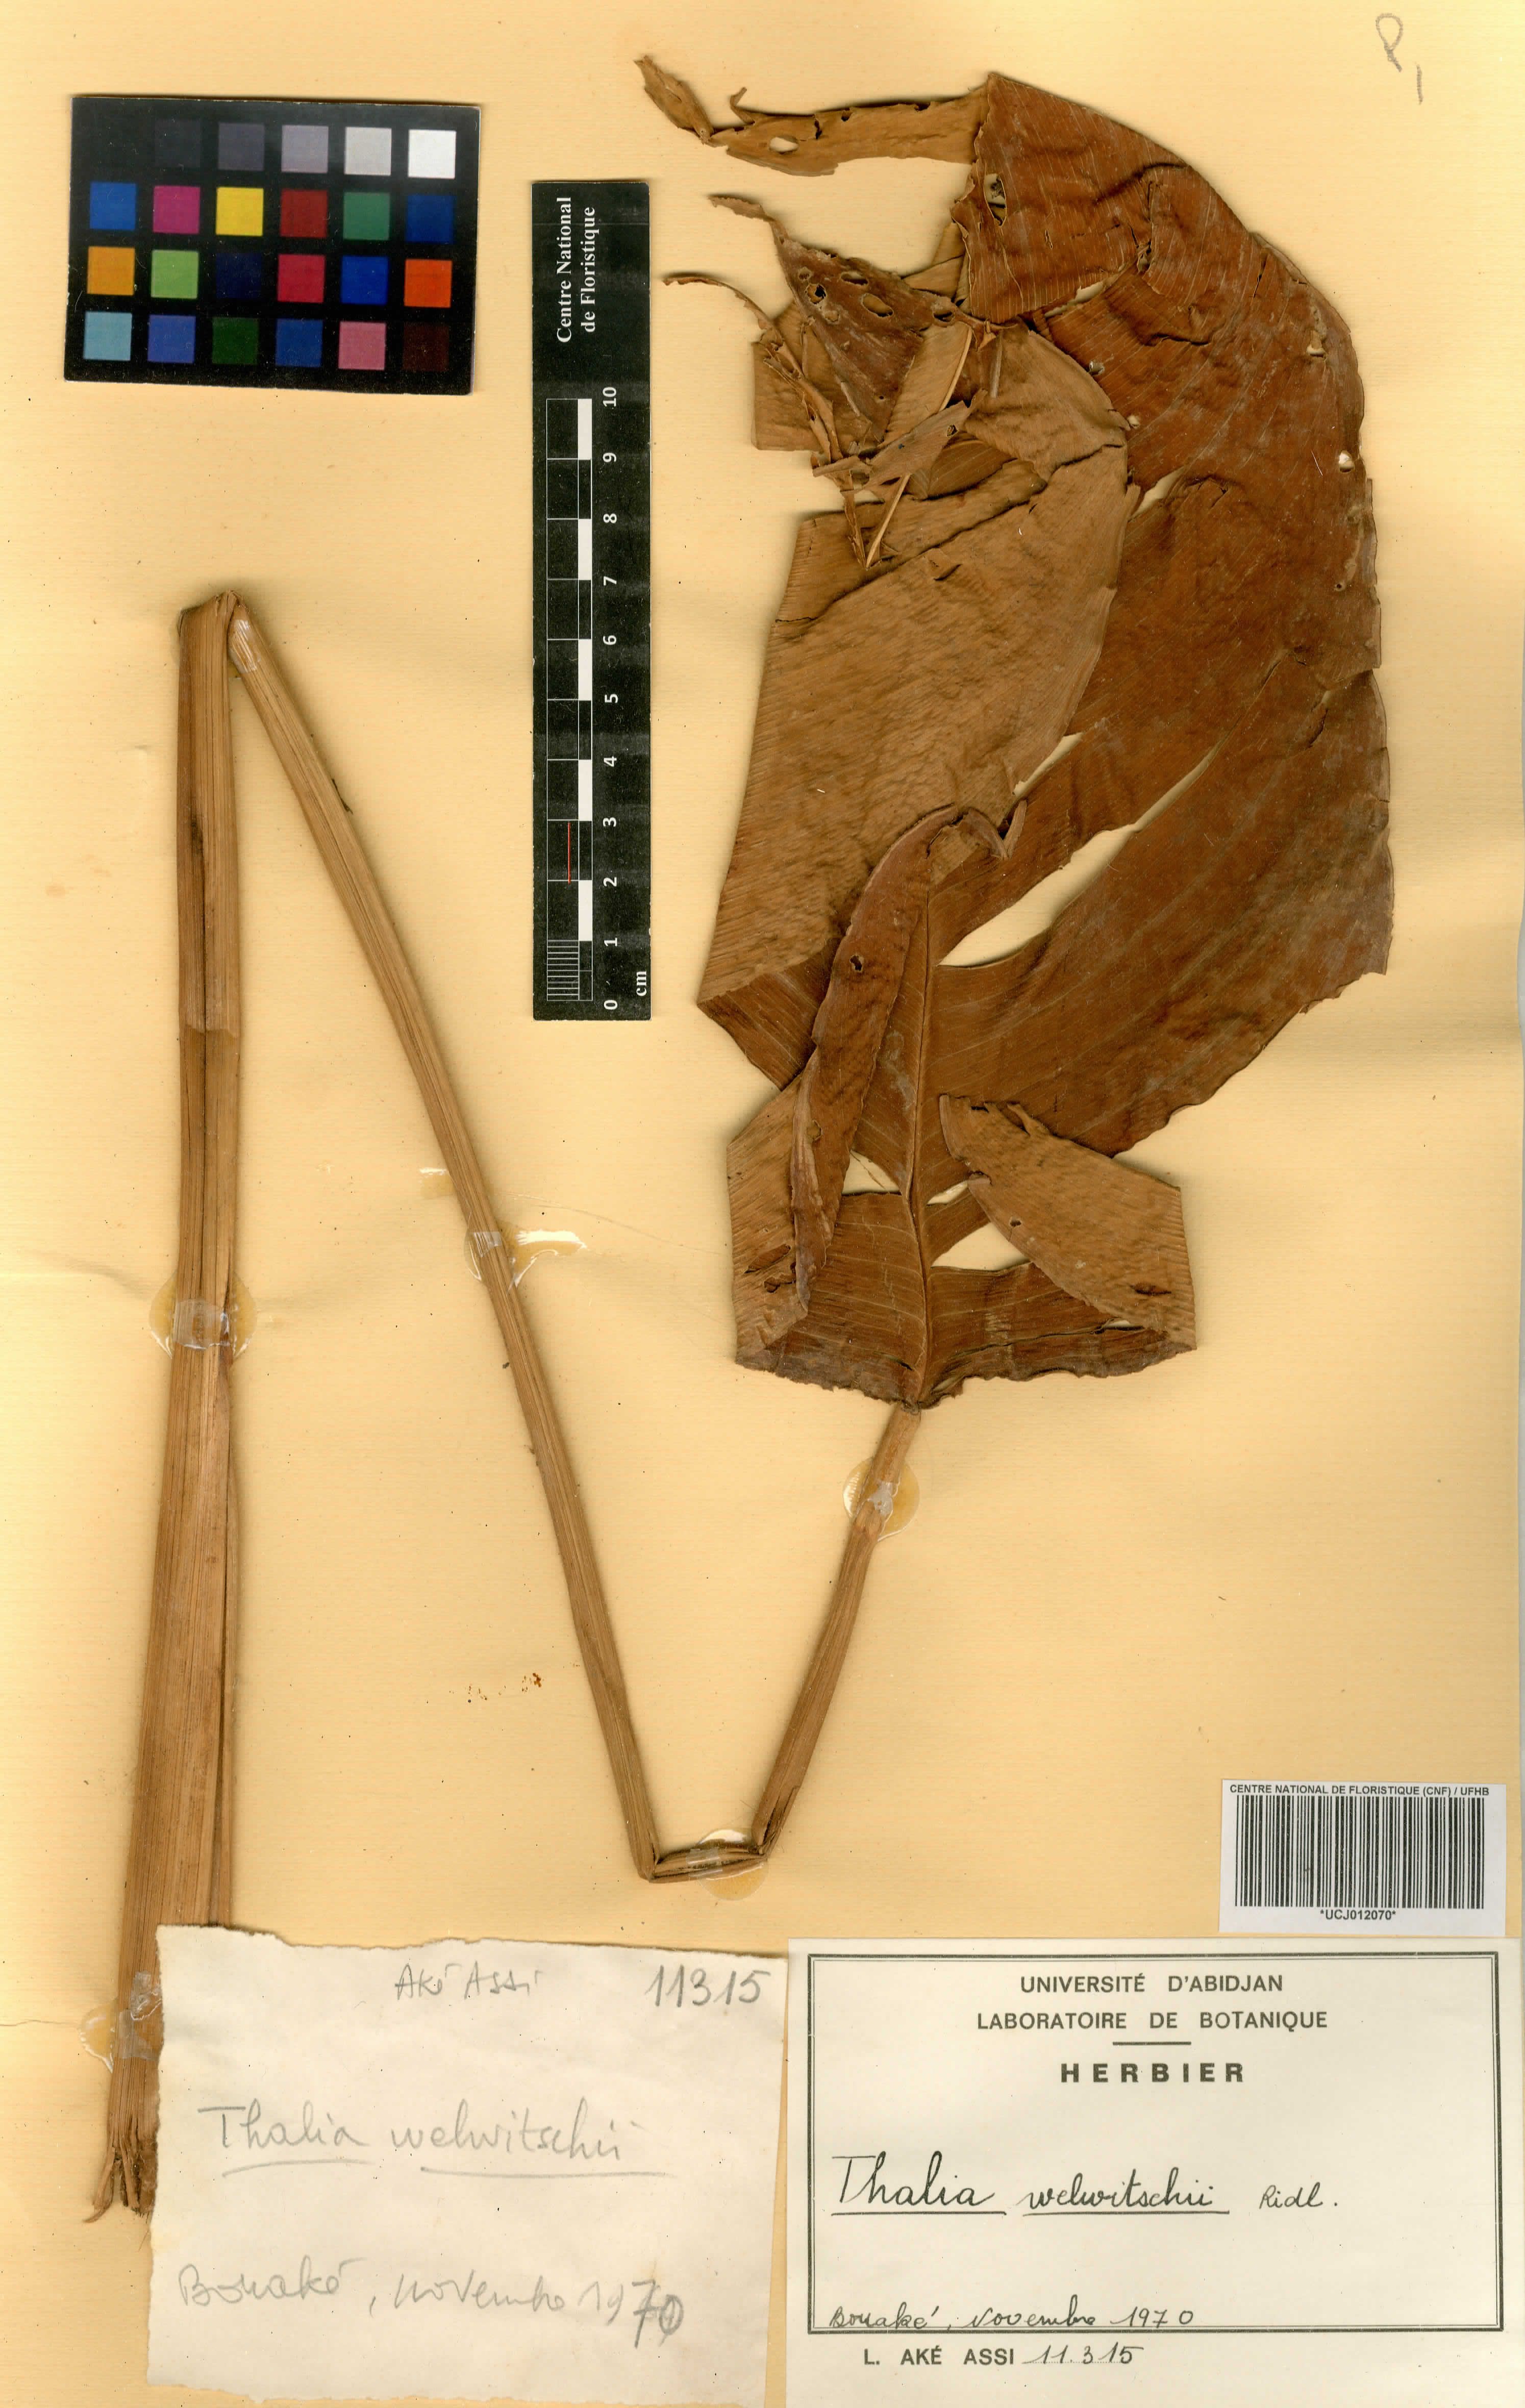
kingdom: Plantae
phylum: Tracheophyta
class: Liliopsida
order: Zingiberales
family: Marantaceae
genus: Thalia
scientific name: Thalia geniculata
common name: Arrowroot
